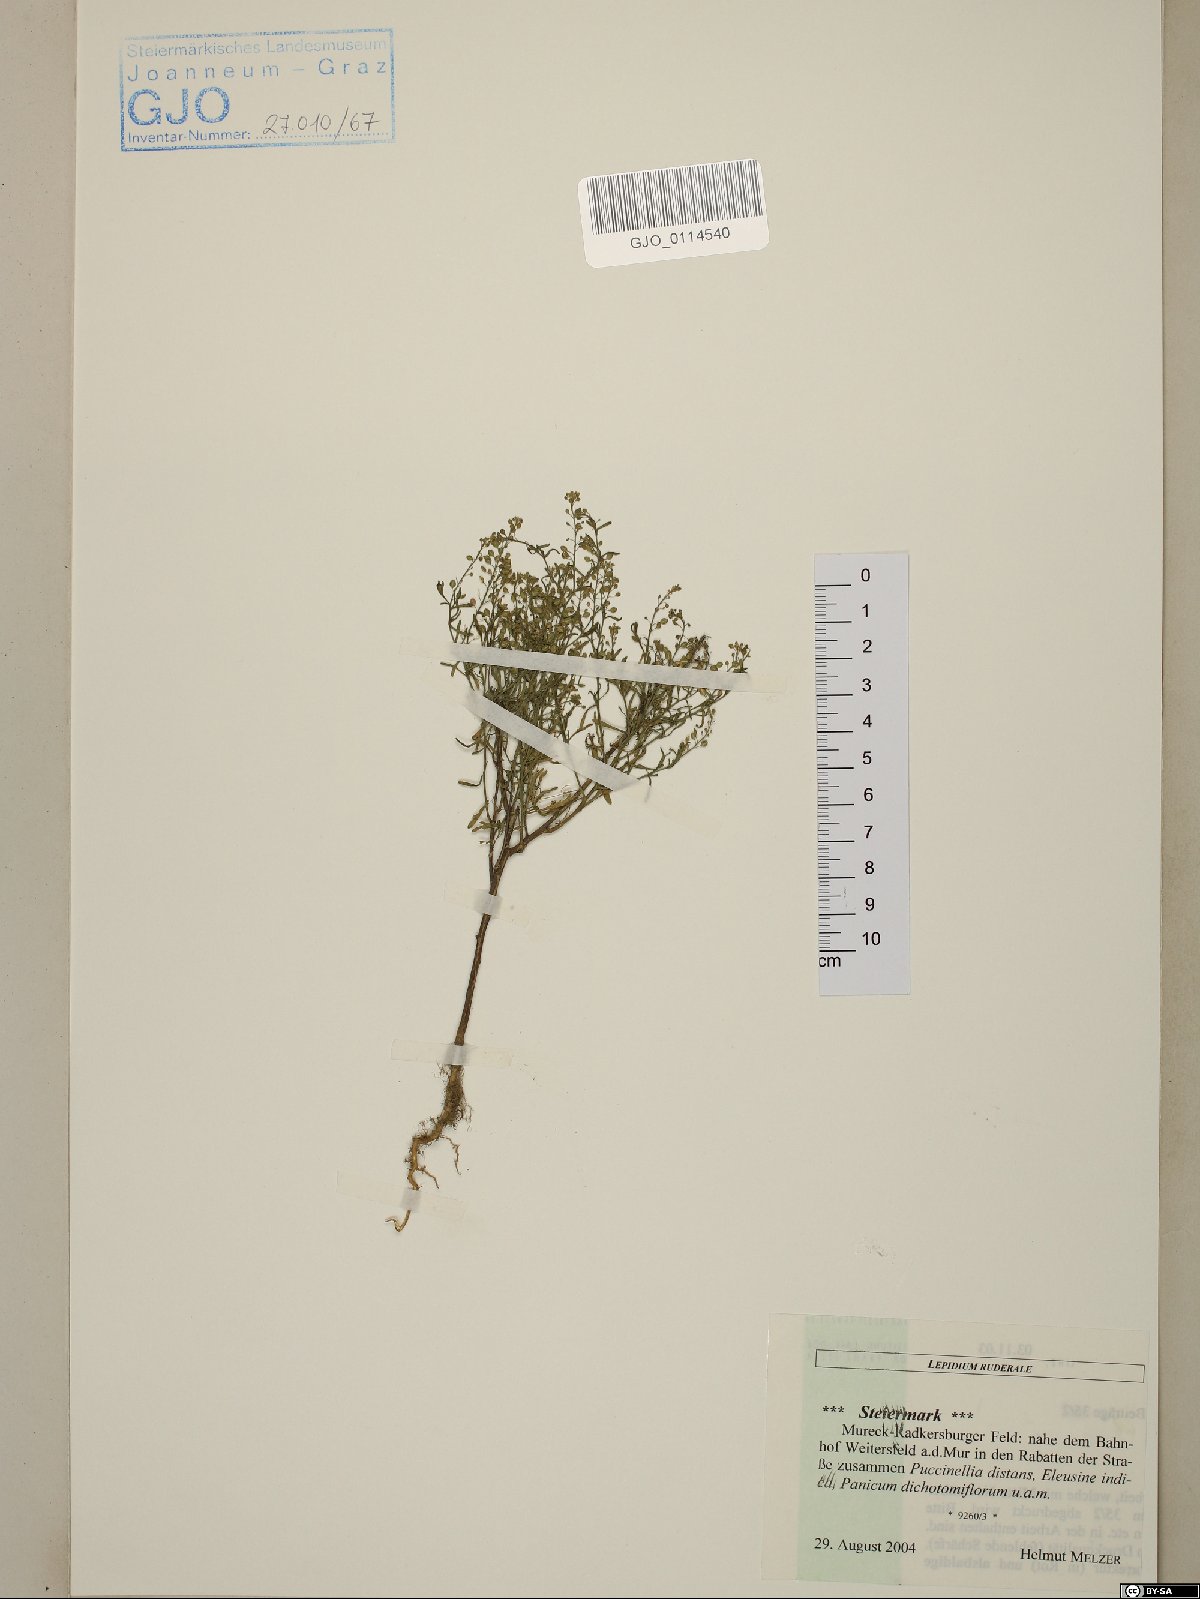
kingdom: Plantae
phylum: Tracheophyta
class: Magnoliopsida
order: Brassicales
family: Brassicaceae
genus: Lepidium
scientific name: Lepidium ruderale
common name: Narrow-leaved pepperwort
